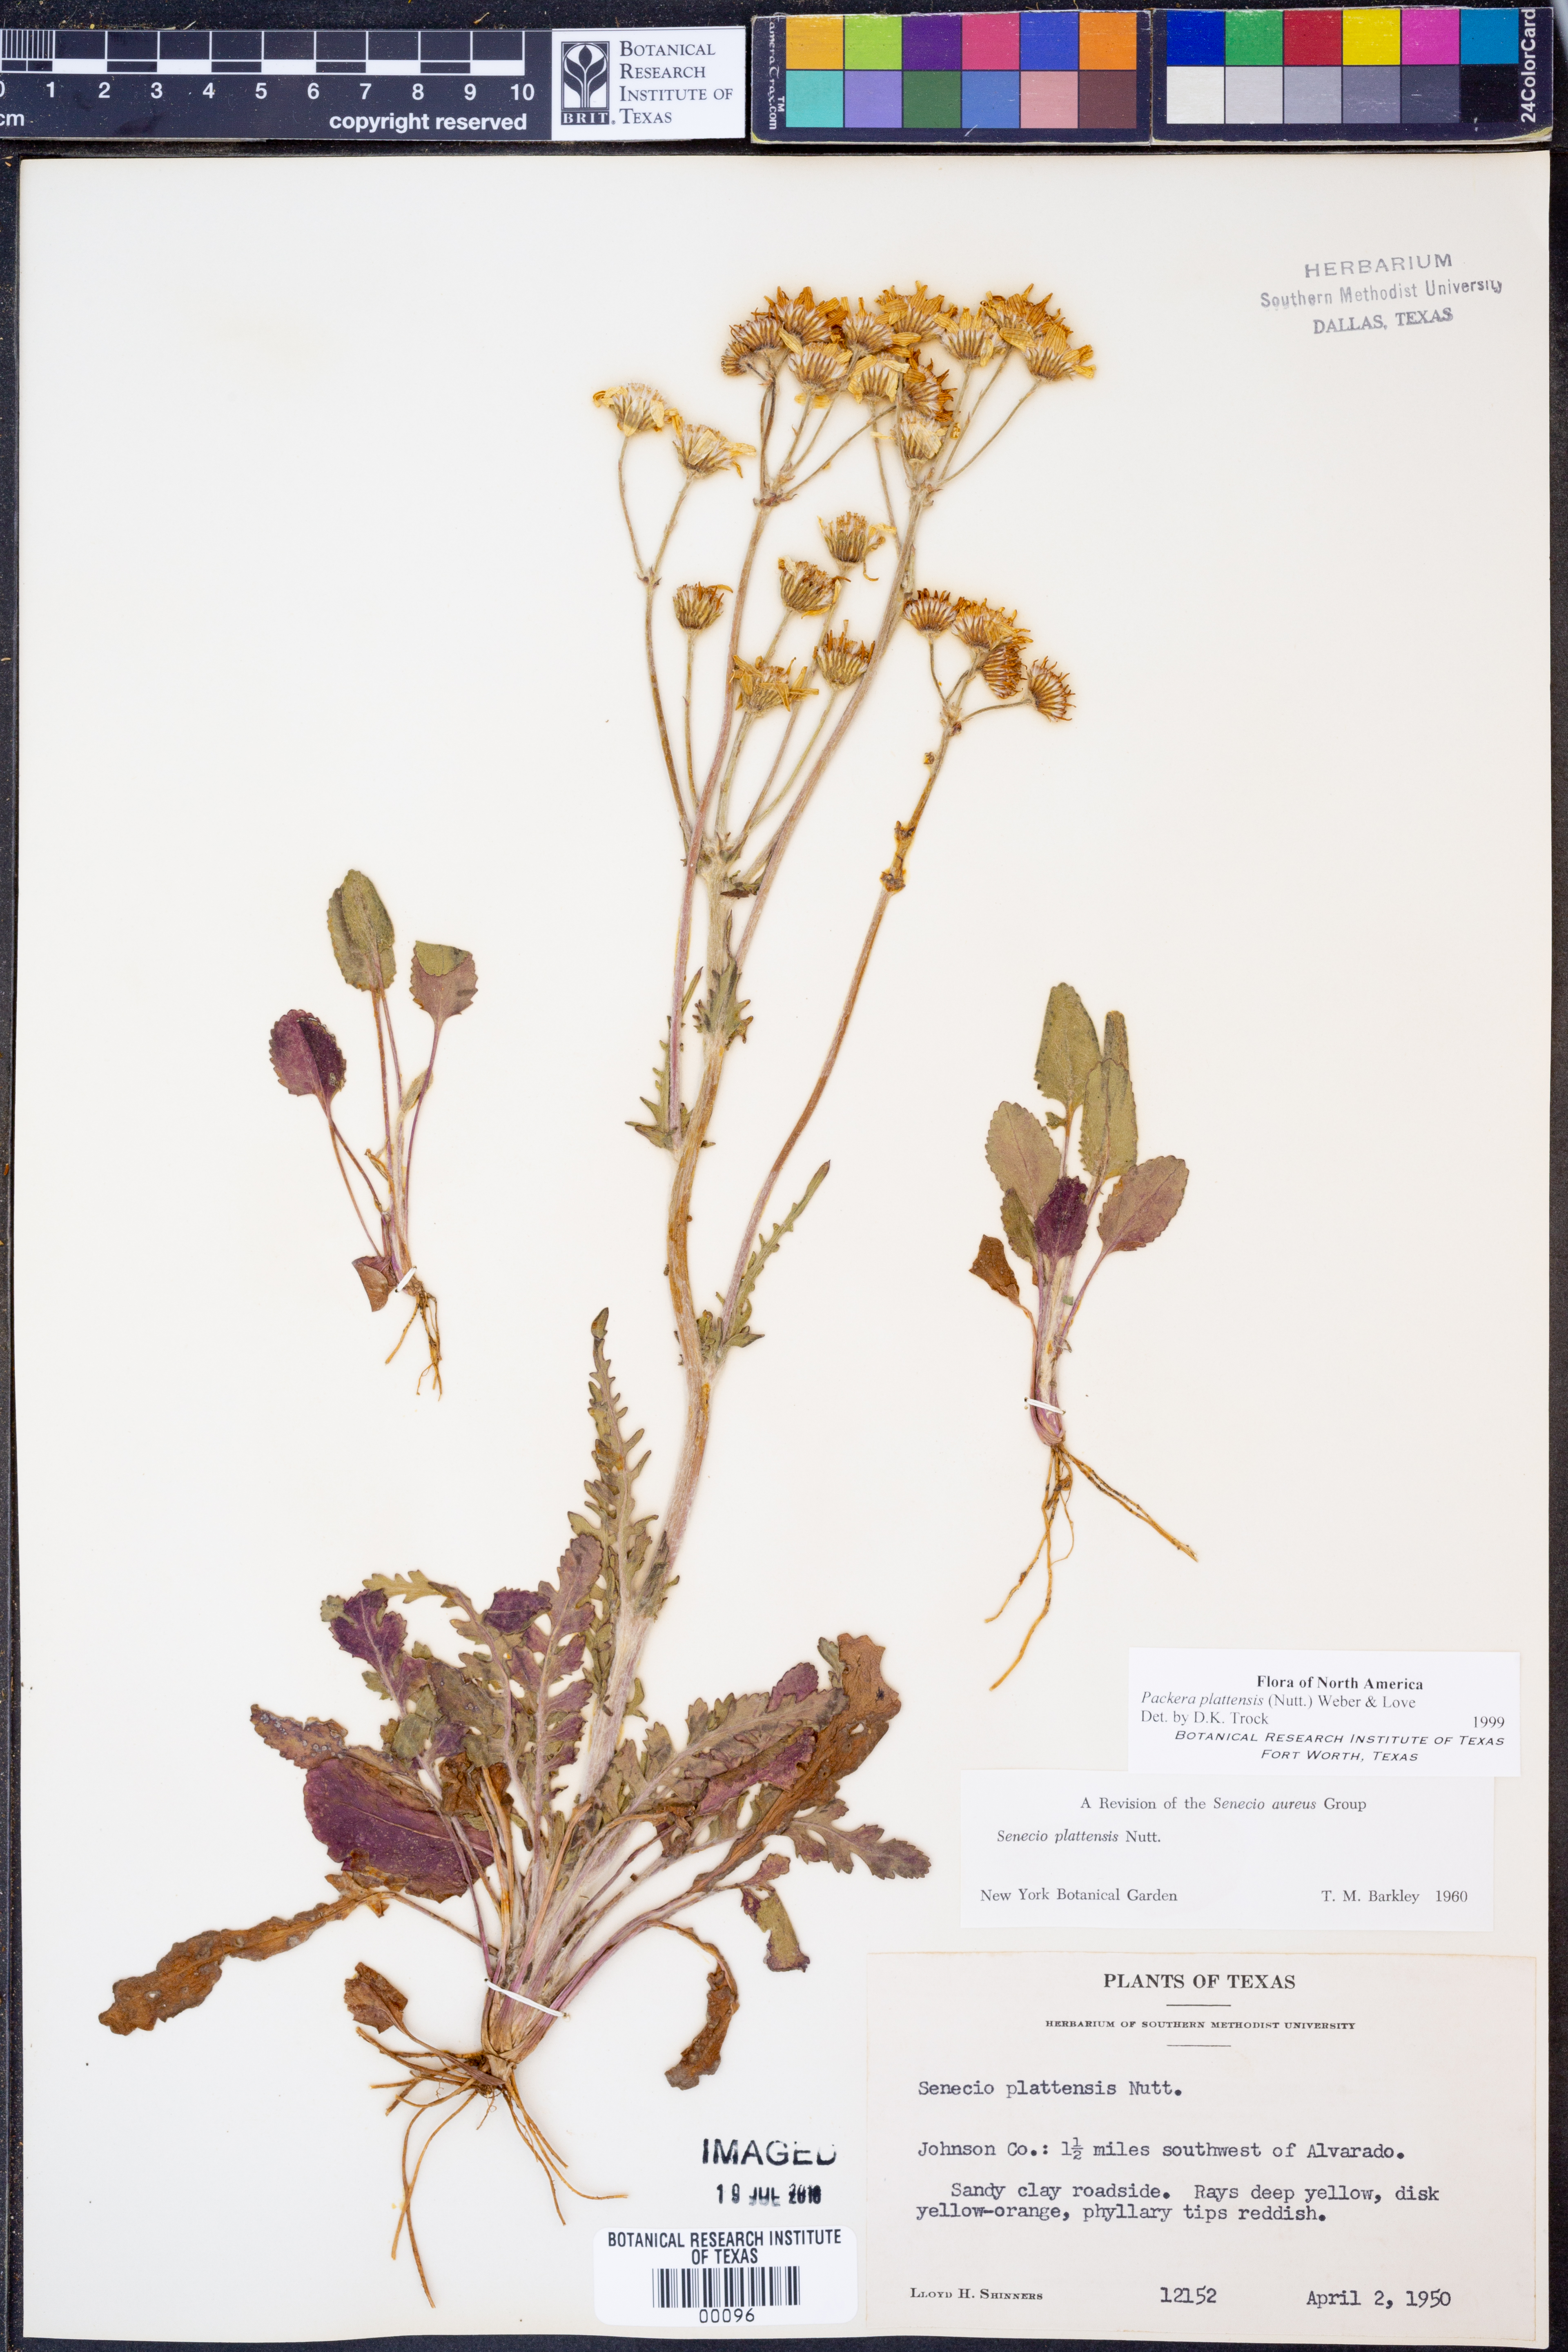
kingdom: Plantae
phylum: Tracheophyta
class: Magnoliopsida
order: Asterales
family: Asteraceae
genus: Packera
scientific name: Packera plattensis
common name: Prairie groundsel
